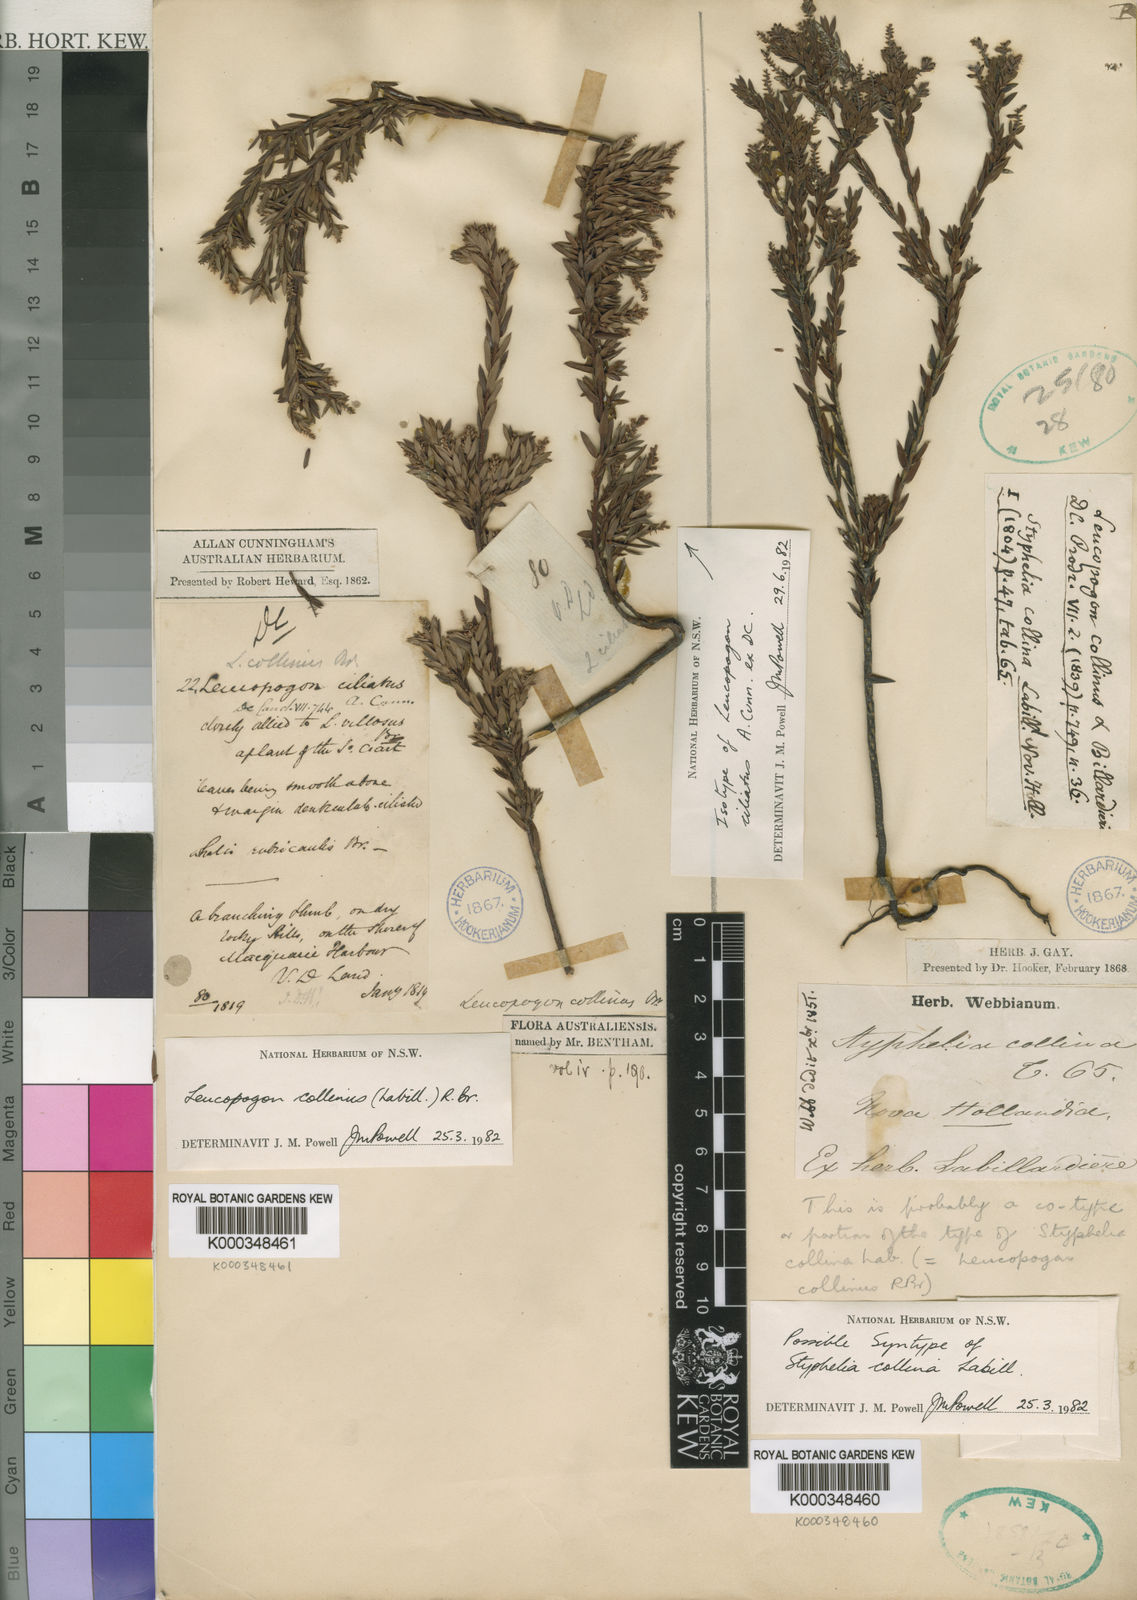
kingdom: Plantae
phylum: Tracheophyta
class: Magnoliopsida
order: Ericales
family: Ericaceae
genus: Leucopogon
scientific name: Leucopogon collinus
